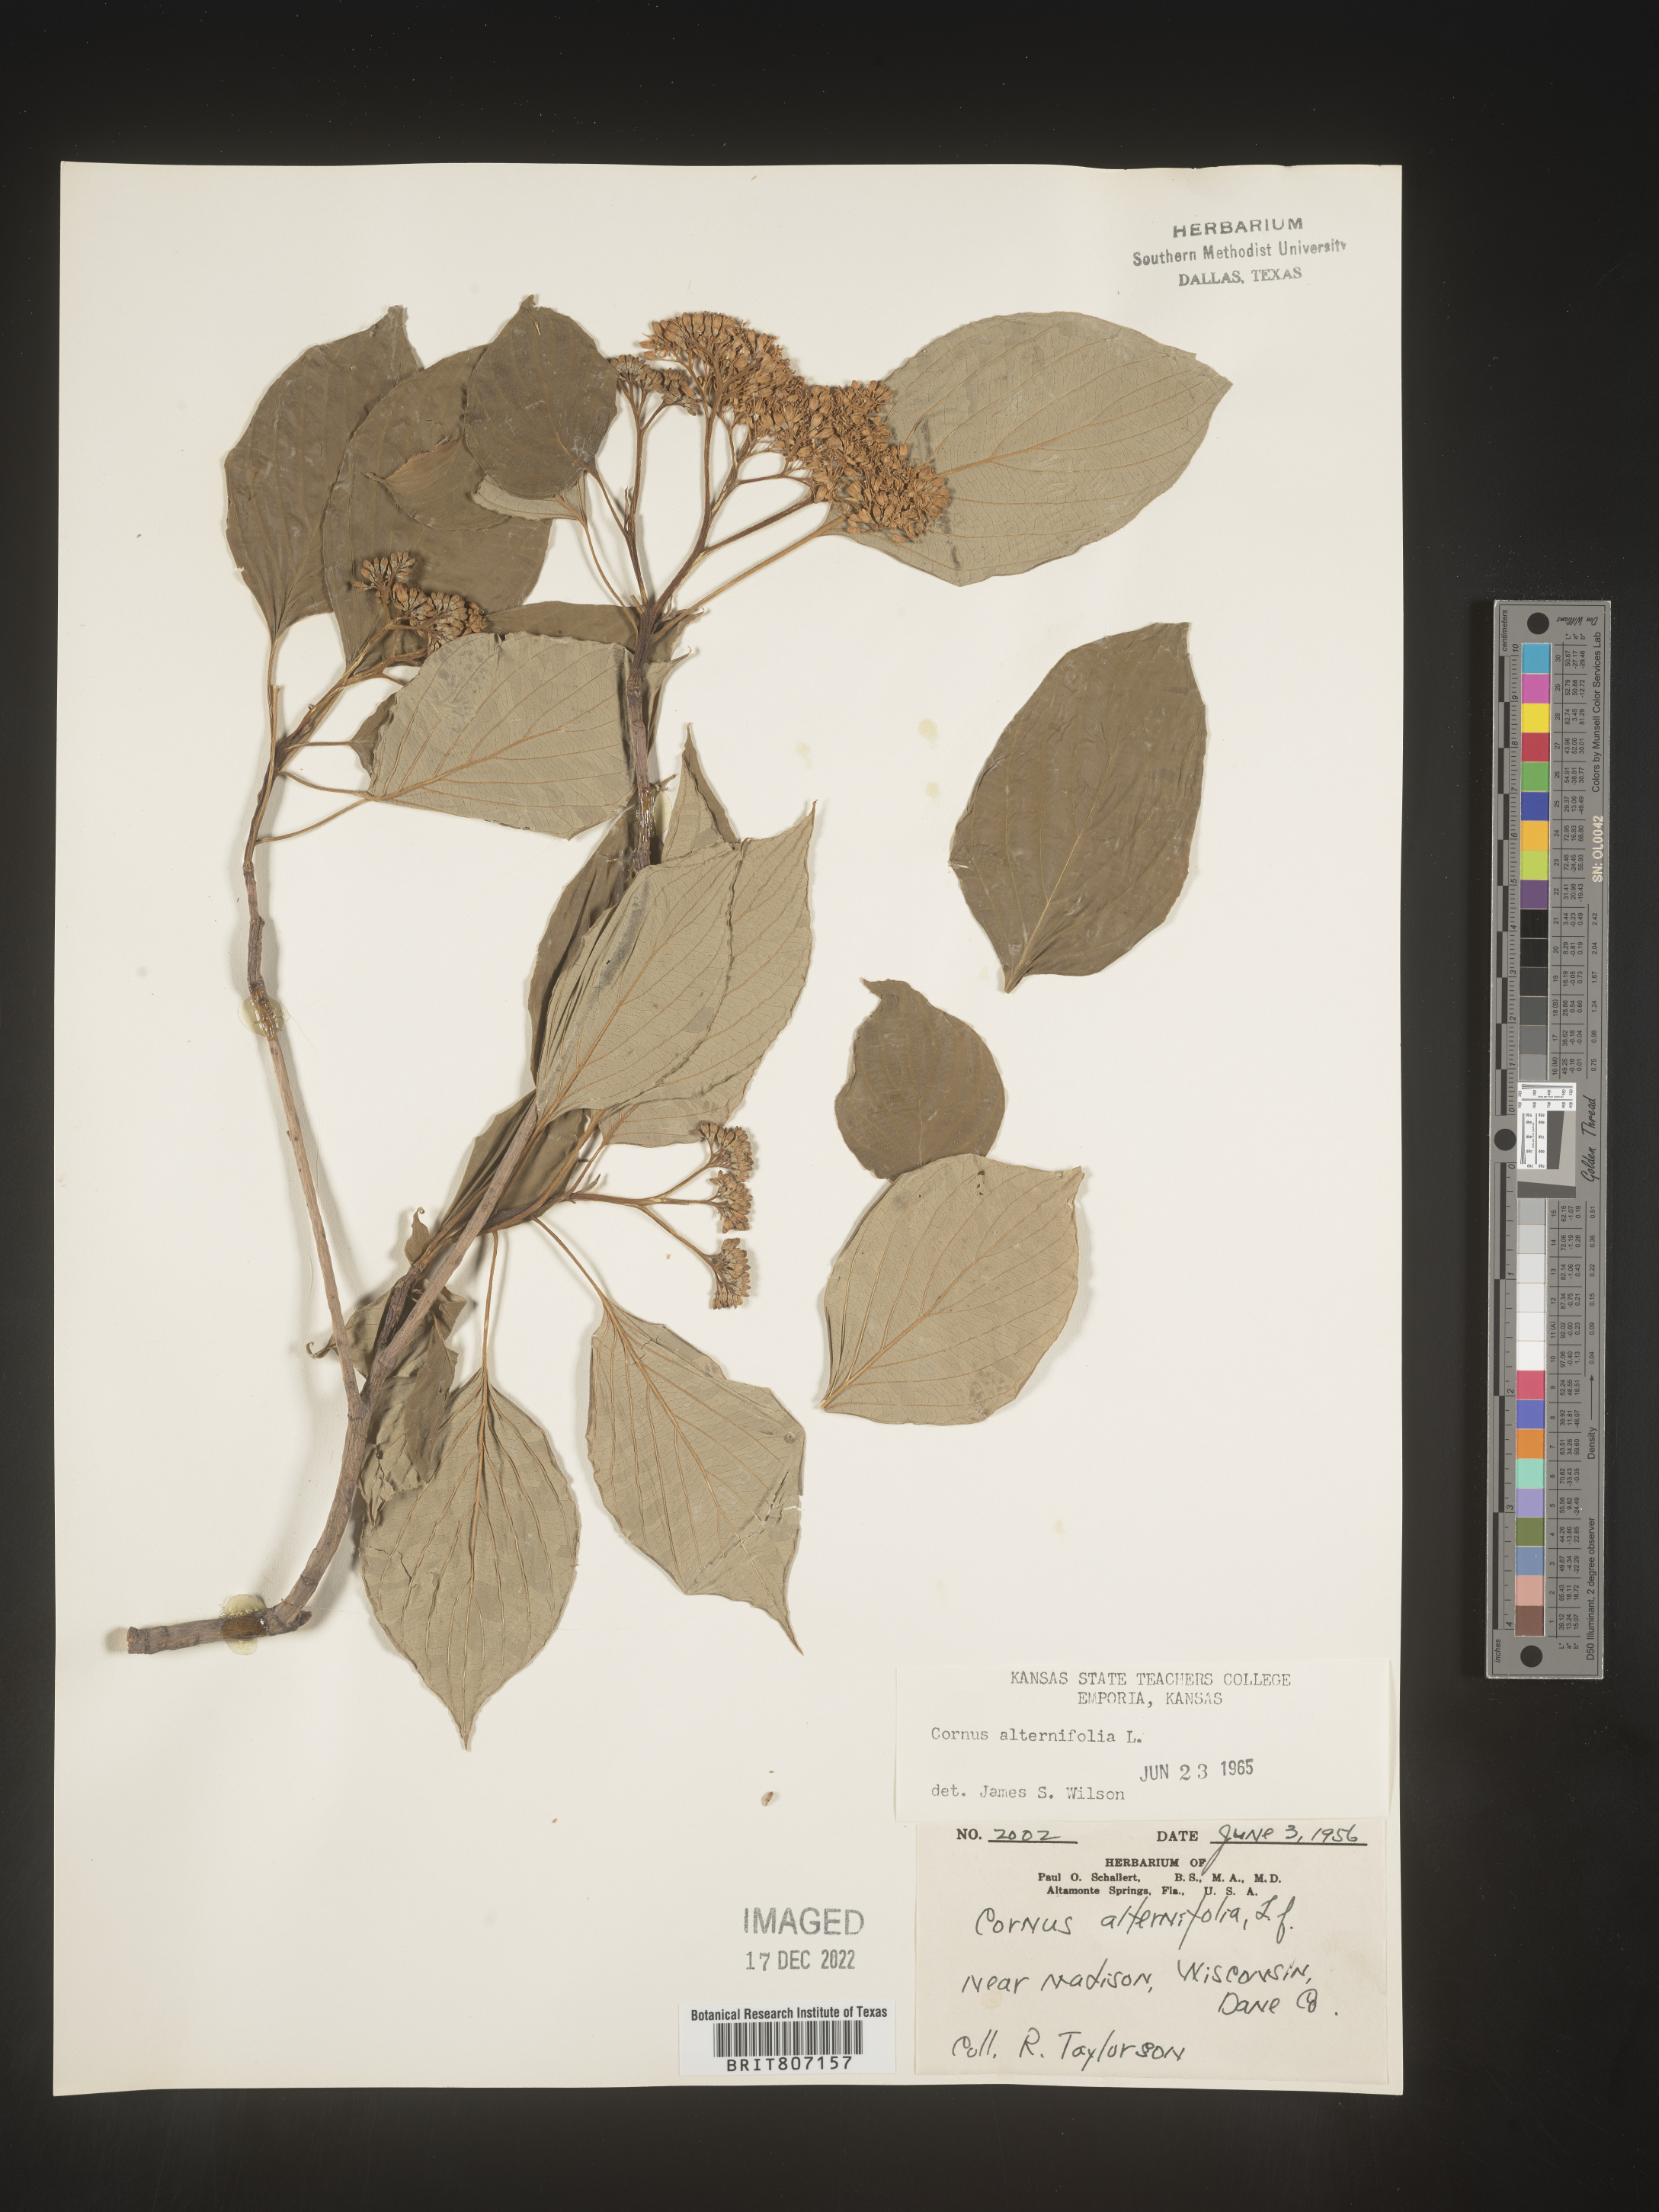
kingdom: Plantae
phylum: Tracheophyta
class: Magnoliopsida
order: Cornales
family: Cornaceae
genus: Cornus
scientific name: Cornus alternifolia
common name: Pagoda dogwood
